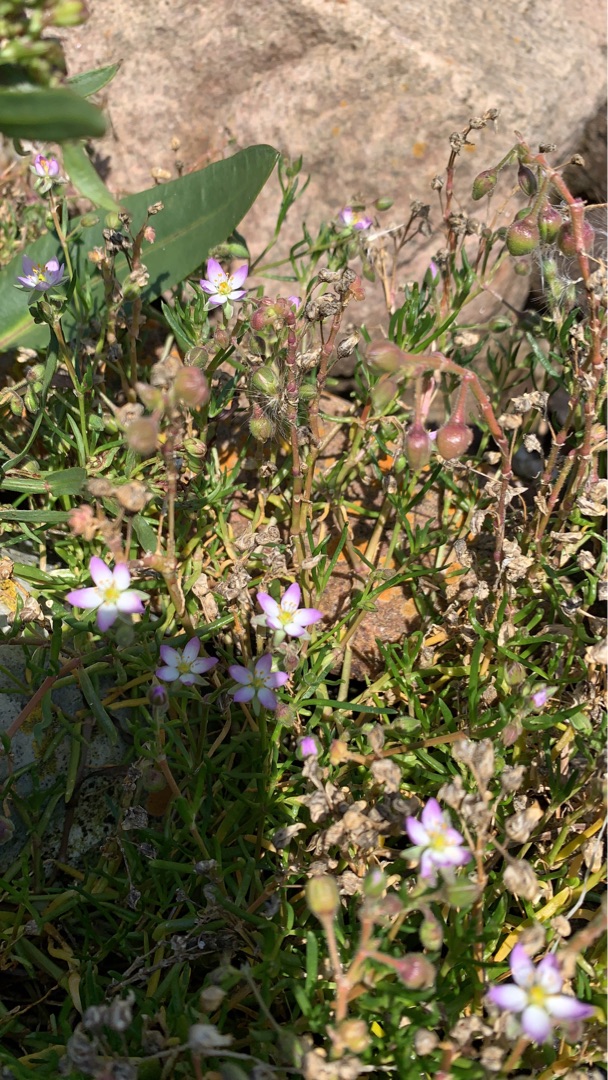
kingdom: Plantae
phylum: Tracheophyta
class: Magnoliopsida
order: Caryophyllales
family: Caryophyllaceae
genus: Spergularia
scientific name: Spergularia media
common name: Vingefrøet hindeknæ
